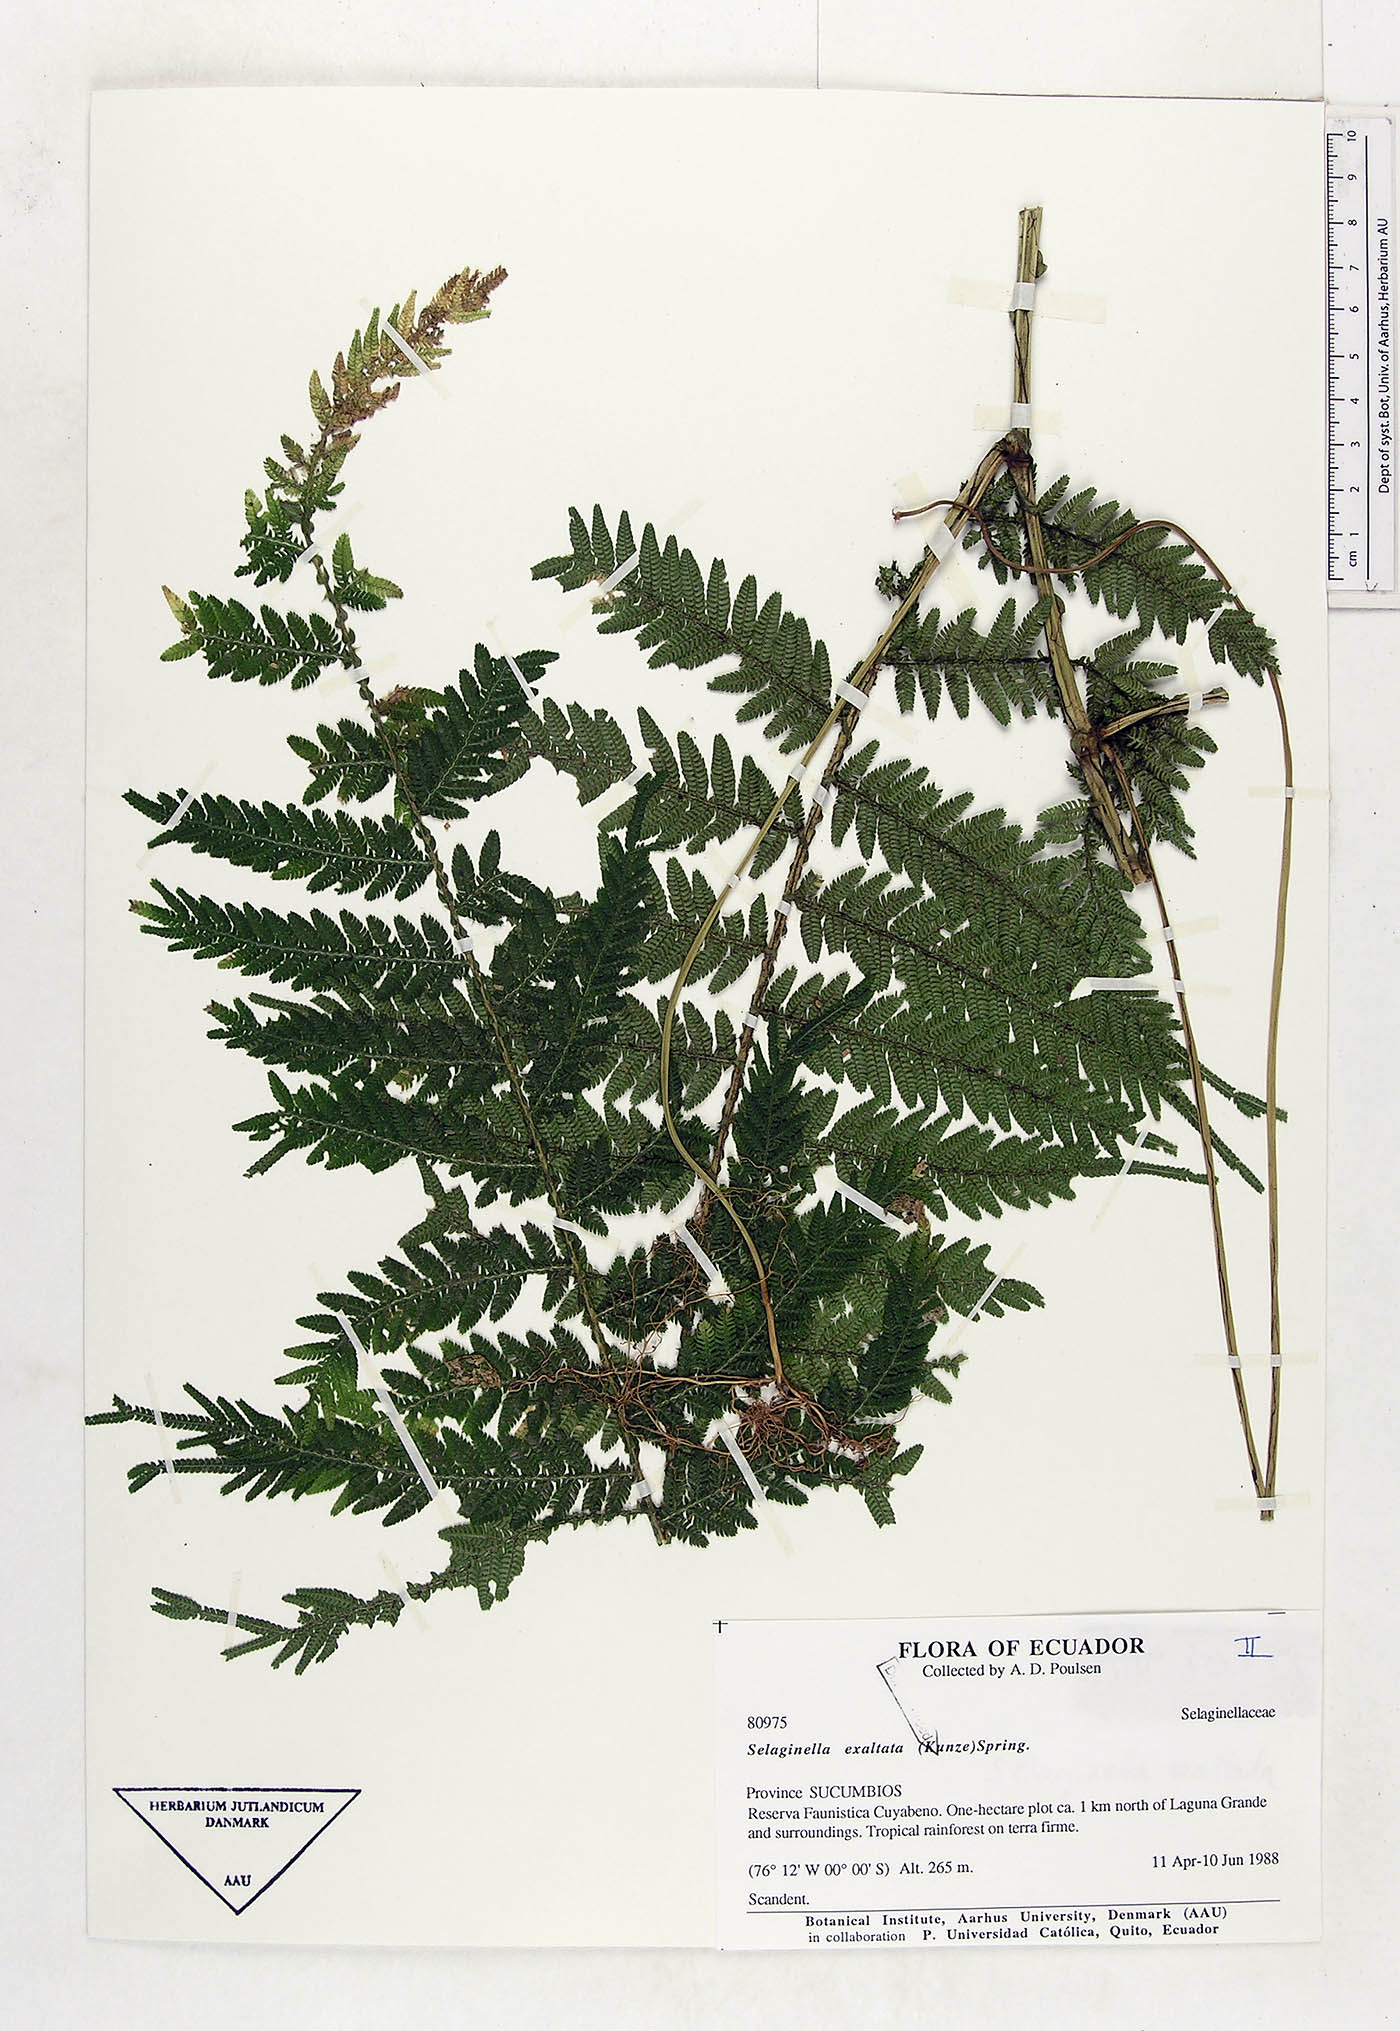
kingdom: Plantae
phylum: Tracheophyta
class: Lycopodiopsida
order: Selaginellales
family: Selaginellaceae
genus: Selaginella
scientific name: Selaginella exaltata
